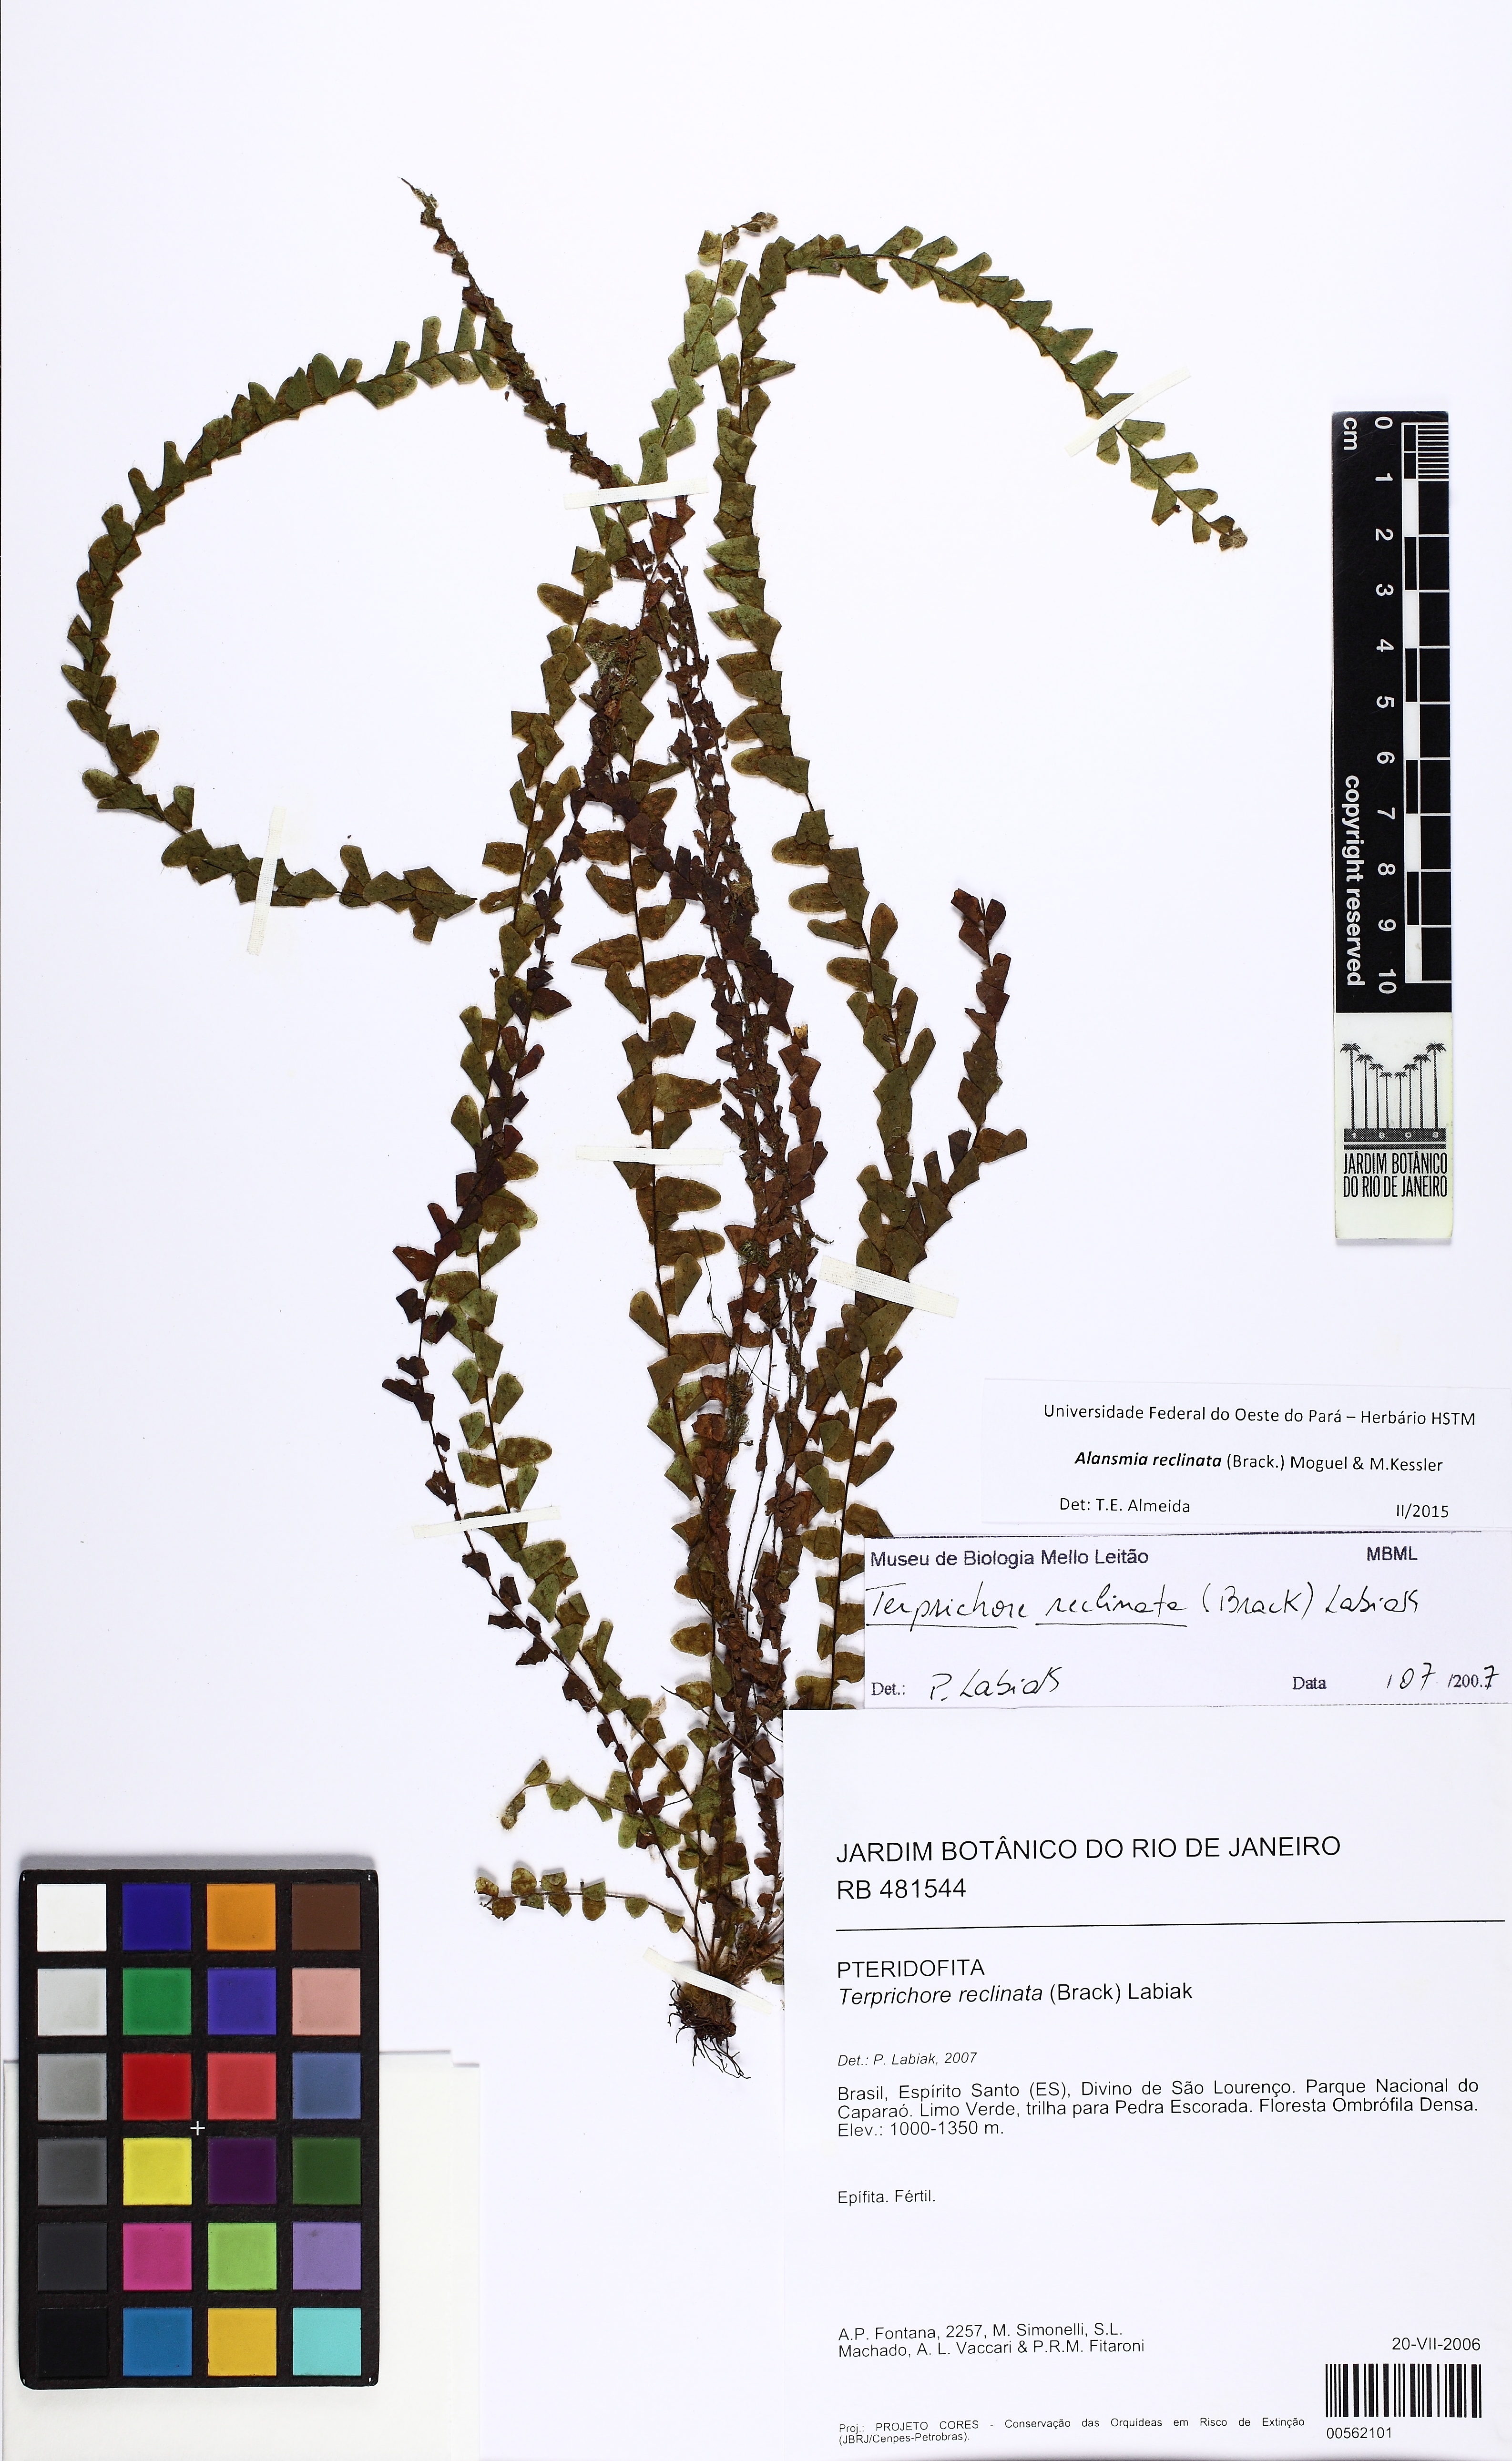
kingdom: Plantae
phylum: Tracheophyta
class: Polypodiopsida
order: Polypodiales
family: Polypodiaceae
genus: Alansmia
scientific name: Alansmia reclinata
